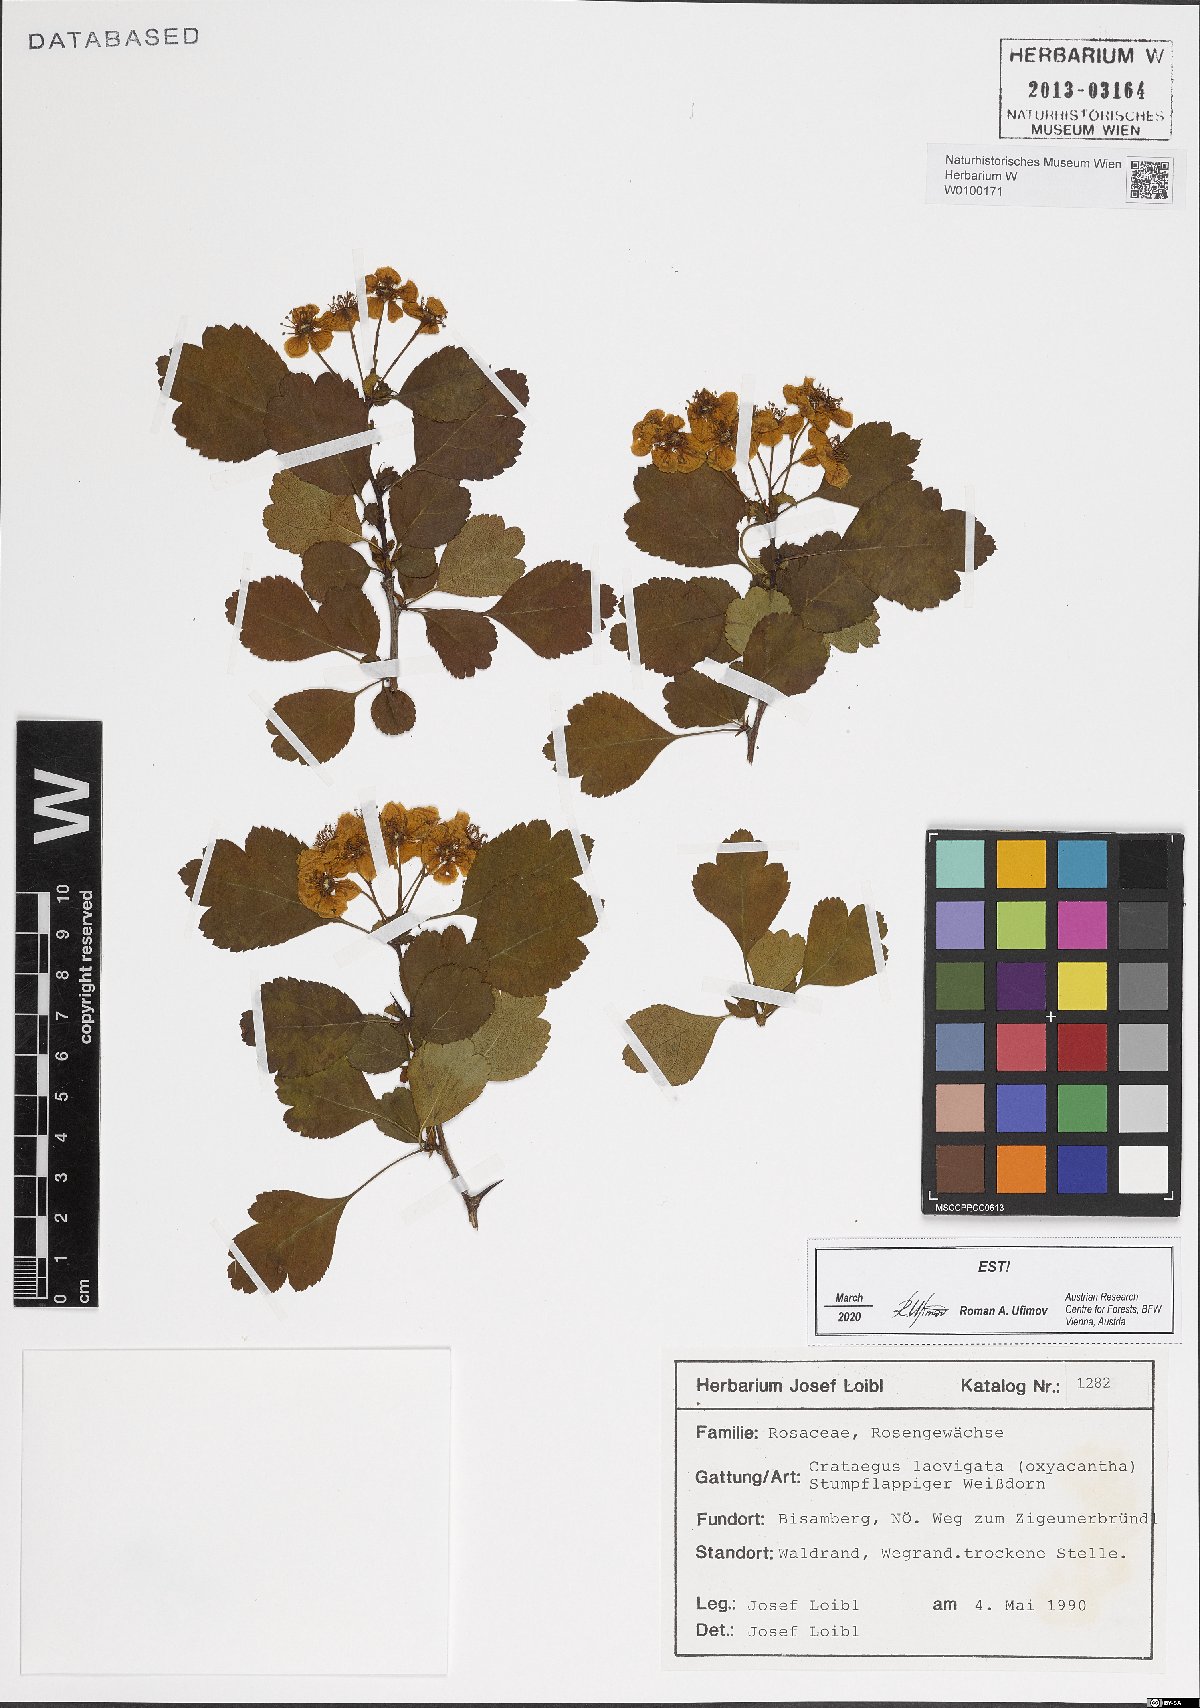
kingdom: Plantae
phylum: Tracheophyta
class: Magnoliopsida
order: Rosales
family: Rosaceae
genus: Crataegus
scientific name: Crataegus laevigata
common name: Midland hawthorn
